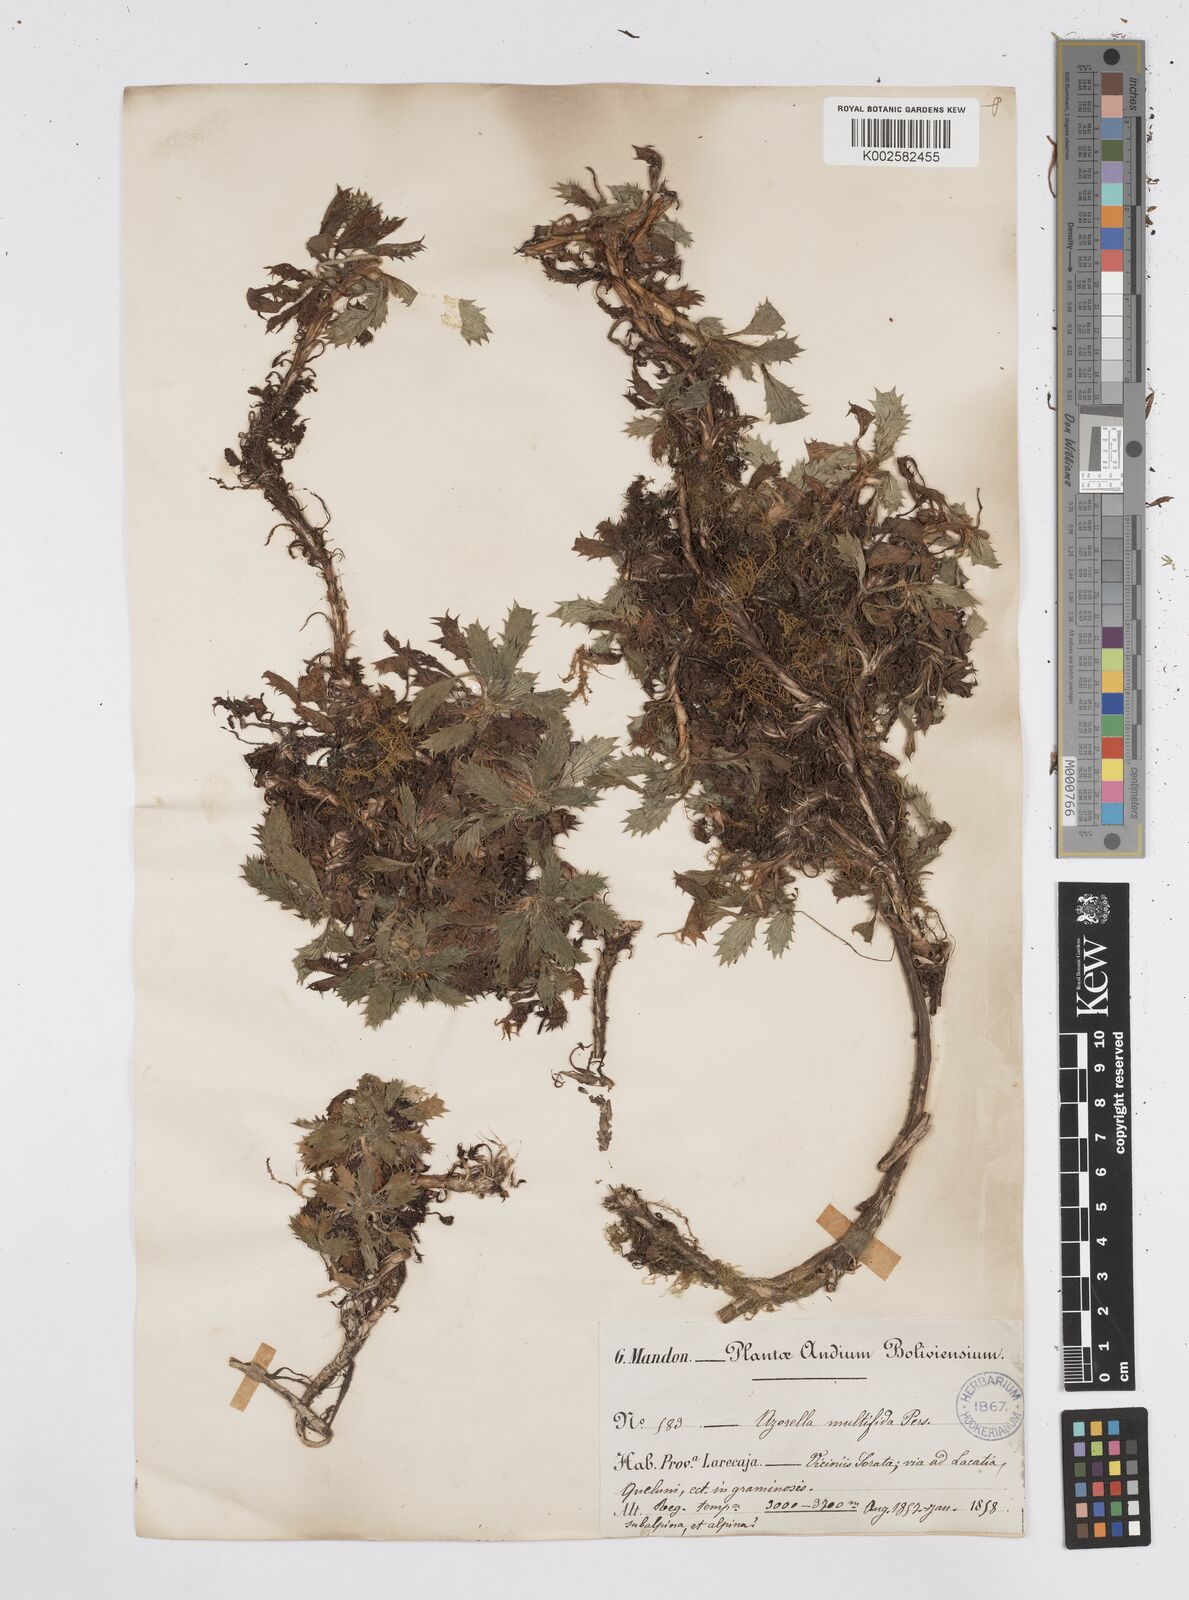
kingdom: Plantae
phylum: Tracheophyta
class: Magnoliopsida
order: Apiales
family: Apiaceae
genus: Azorella
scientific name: Azorella multifida
